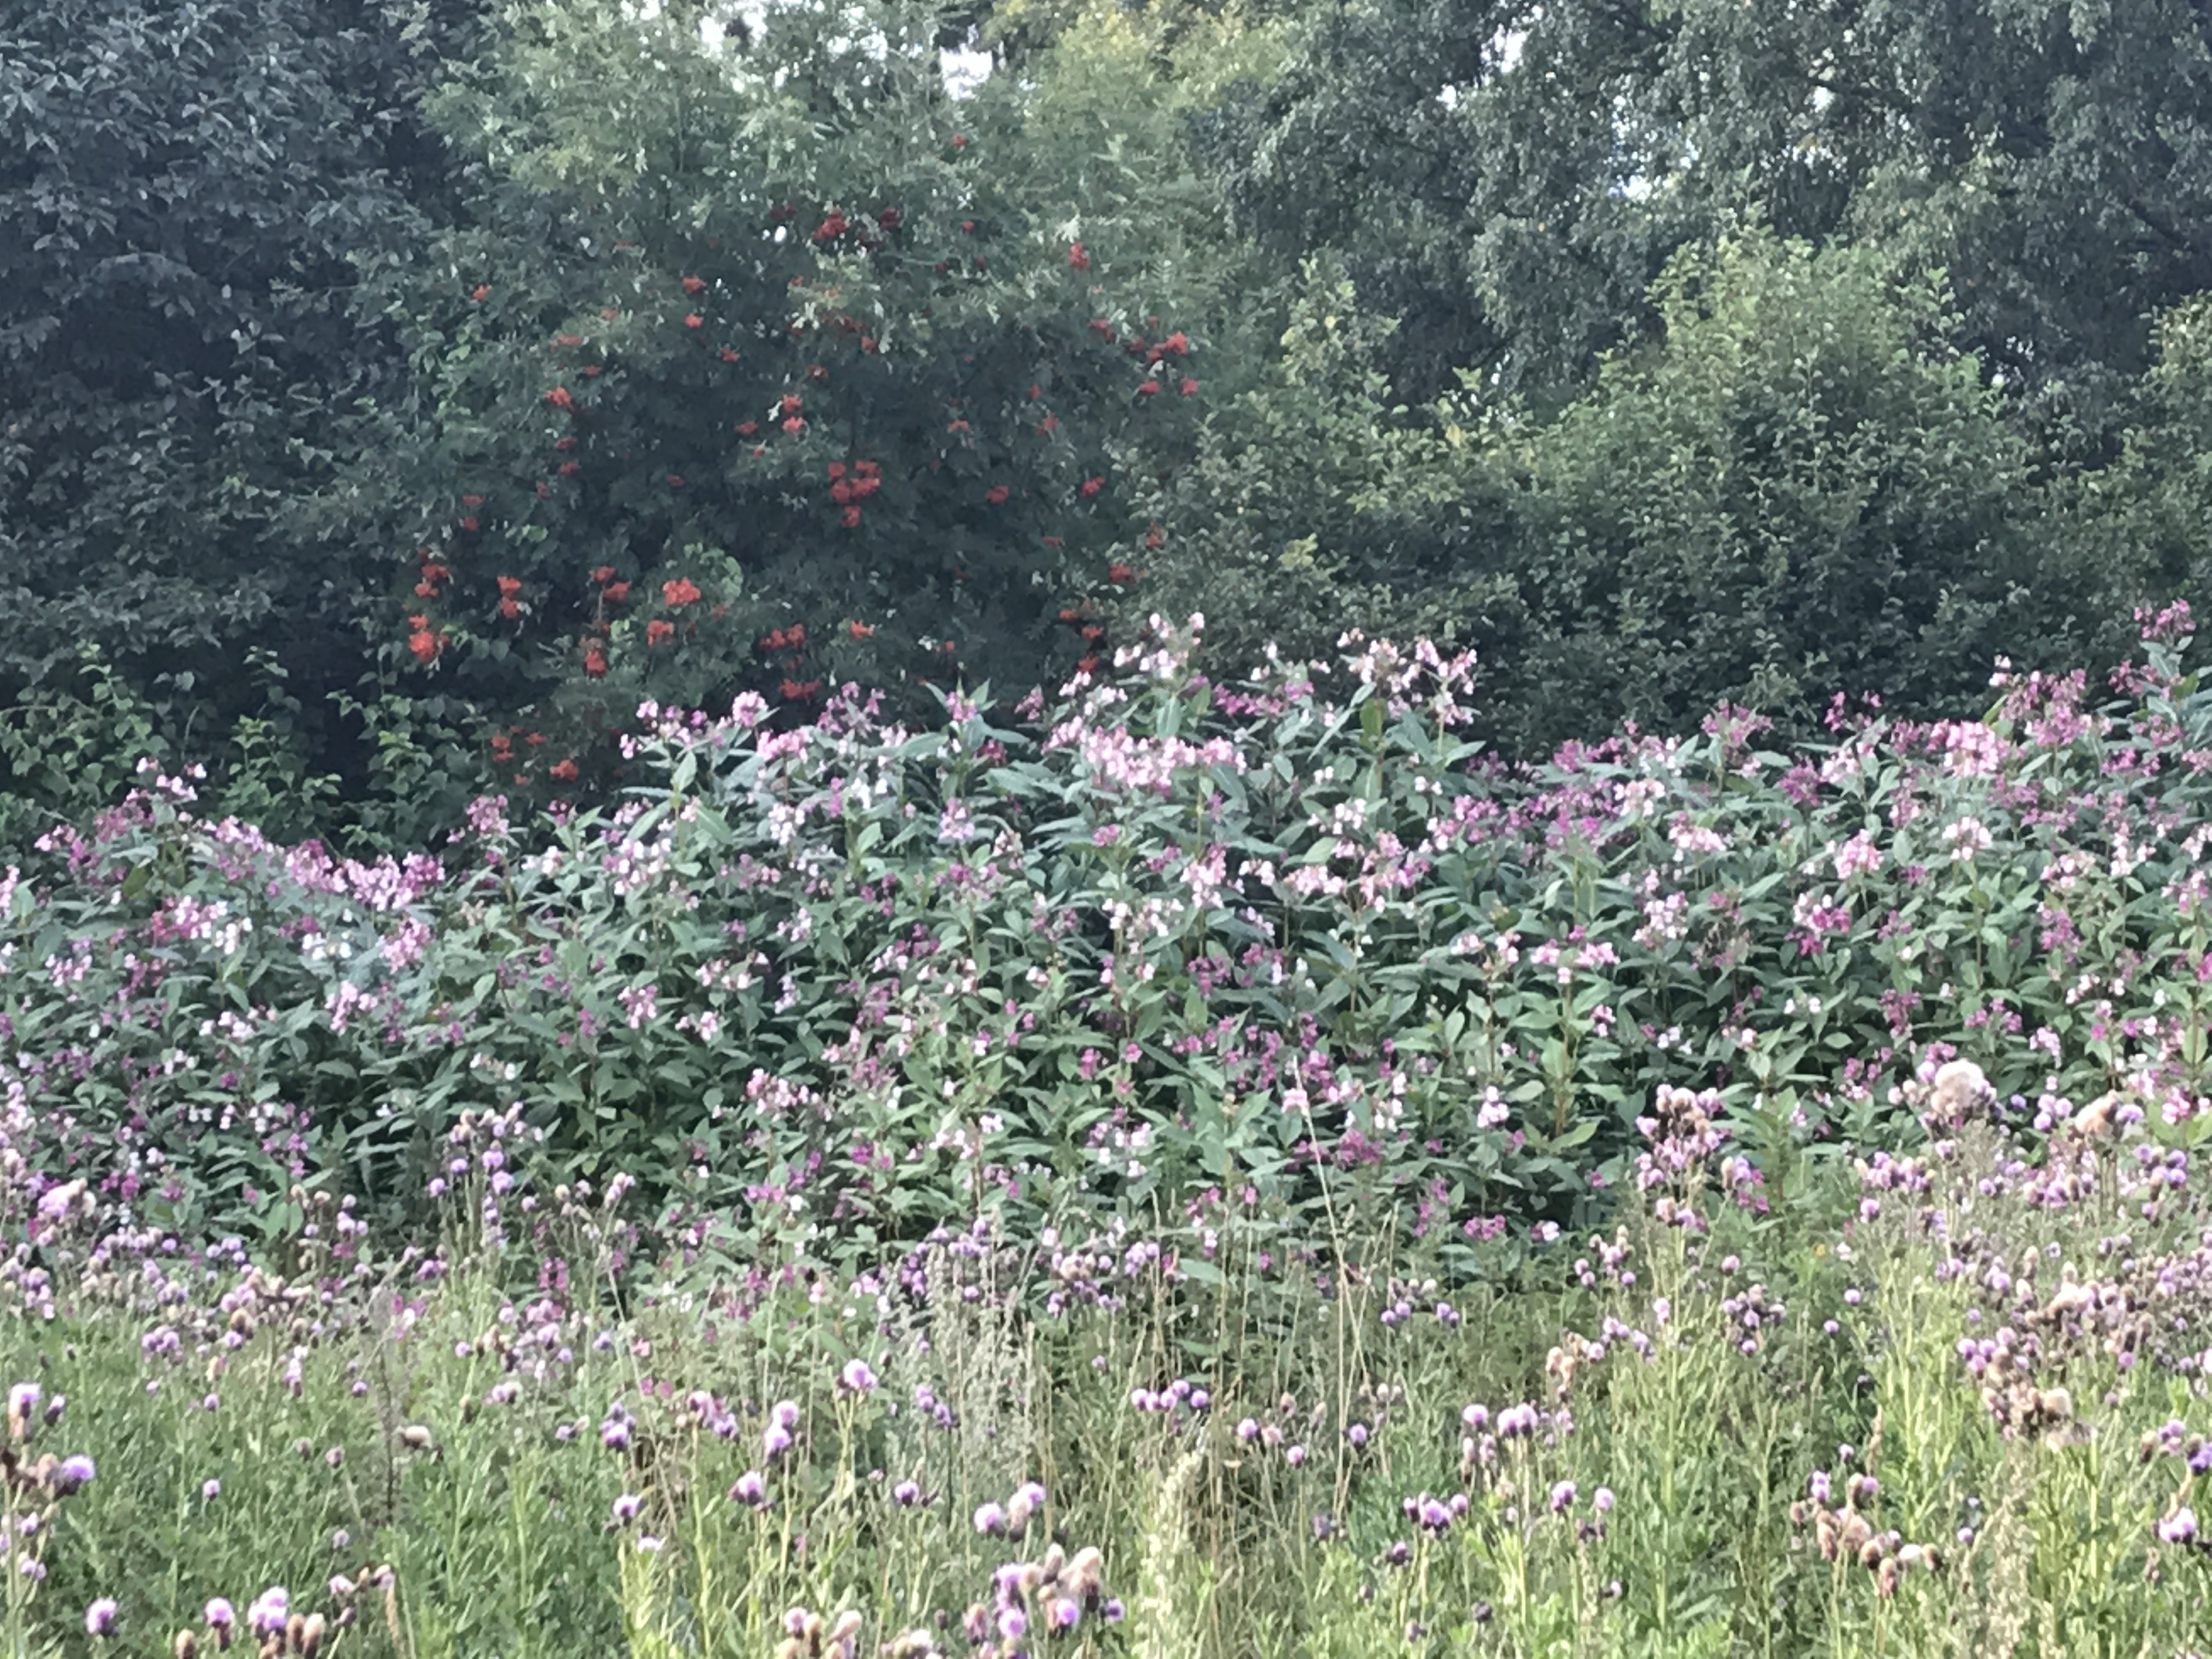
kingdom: Plantae
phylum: Tracheophyta
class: Magnoliopsida
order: Ericales
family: Balsaminaceae
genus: Impatiens
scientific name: Impatiens glandulifera
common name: Himalayan balsam
